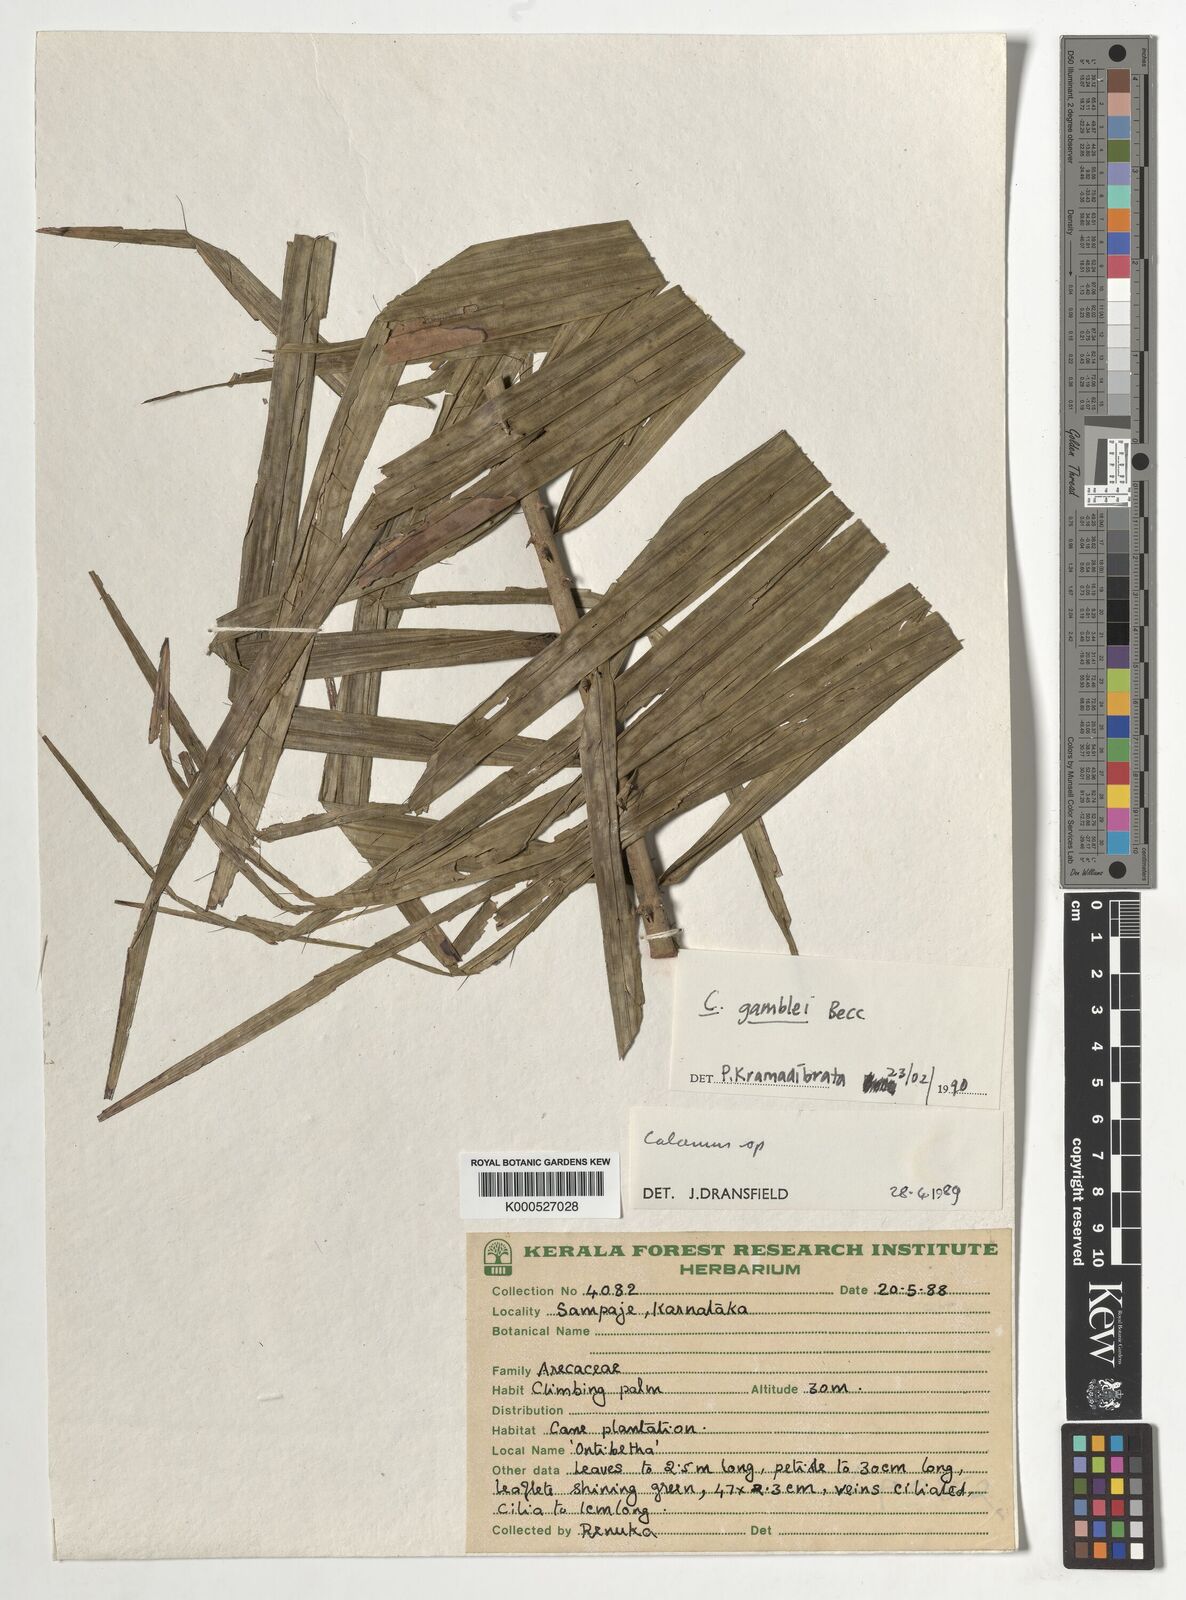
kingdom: Plantae
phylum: Tracheophyta
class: Liliopsida
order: Arecales
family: Arecaceae
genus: Calamus
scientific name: Calamus gamblei
